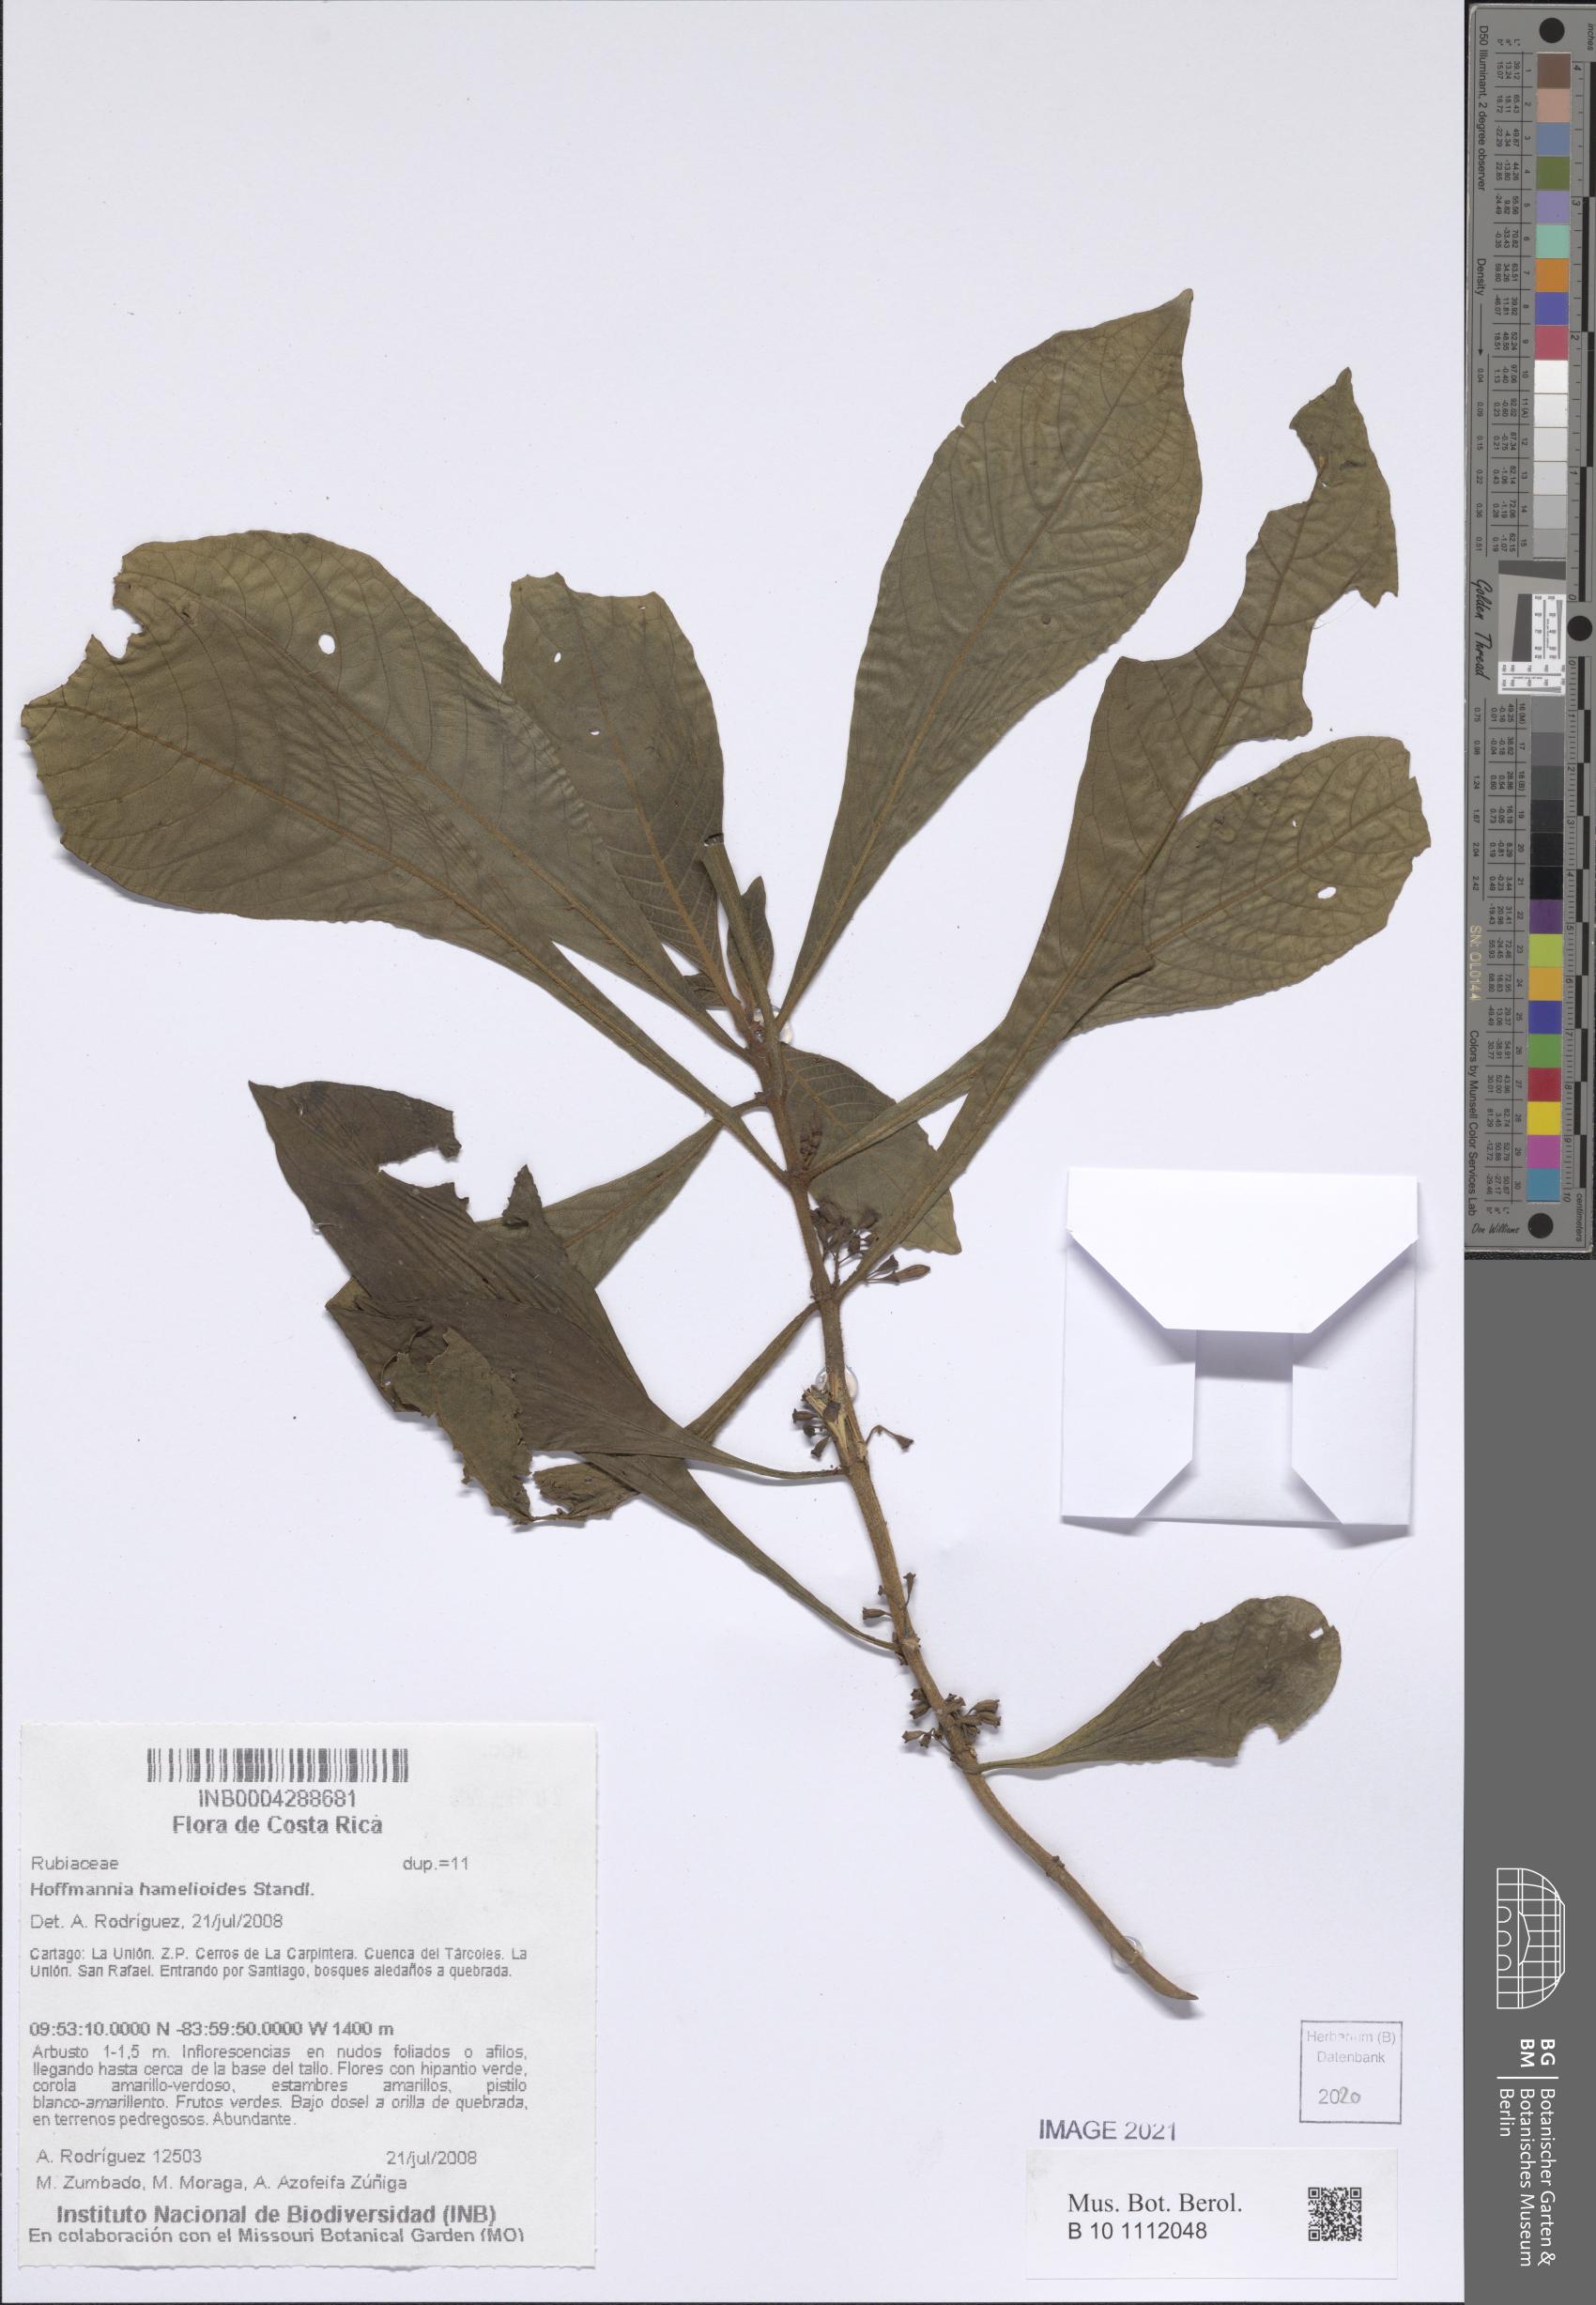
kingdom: Plantae
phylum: Tracheophyta
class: Magnoliopsida
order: Gentianales
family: Rubiaceae
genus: Hoffmannia
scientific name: Hoffmannia costaricensis
